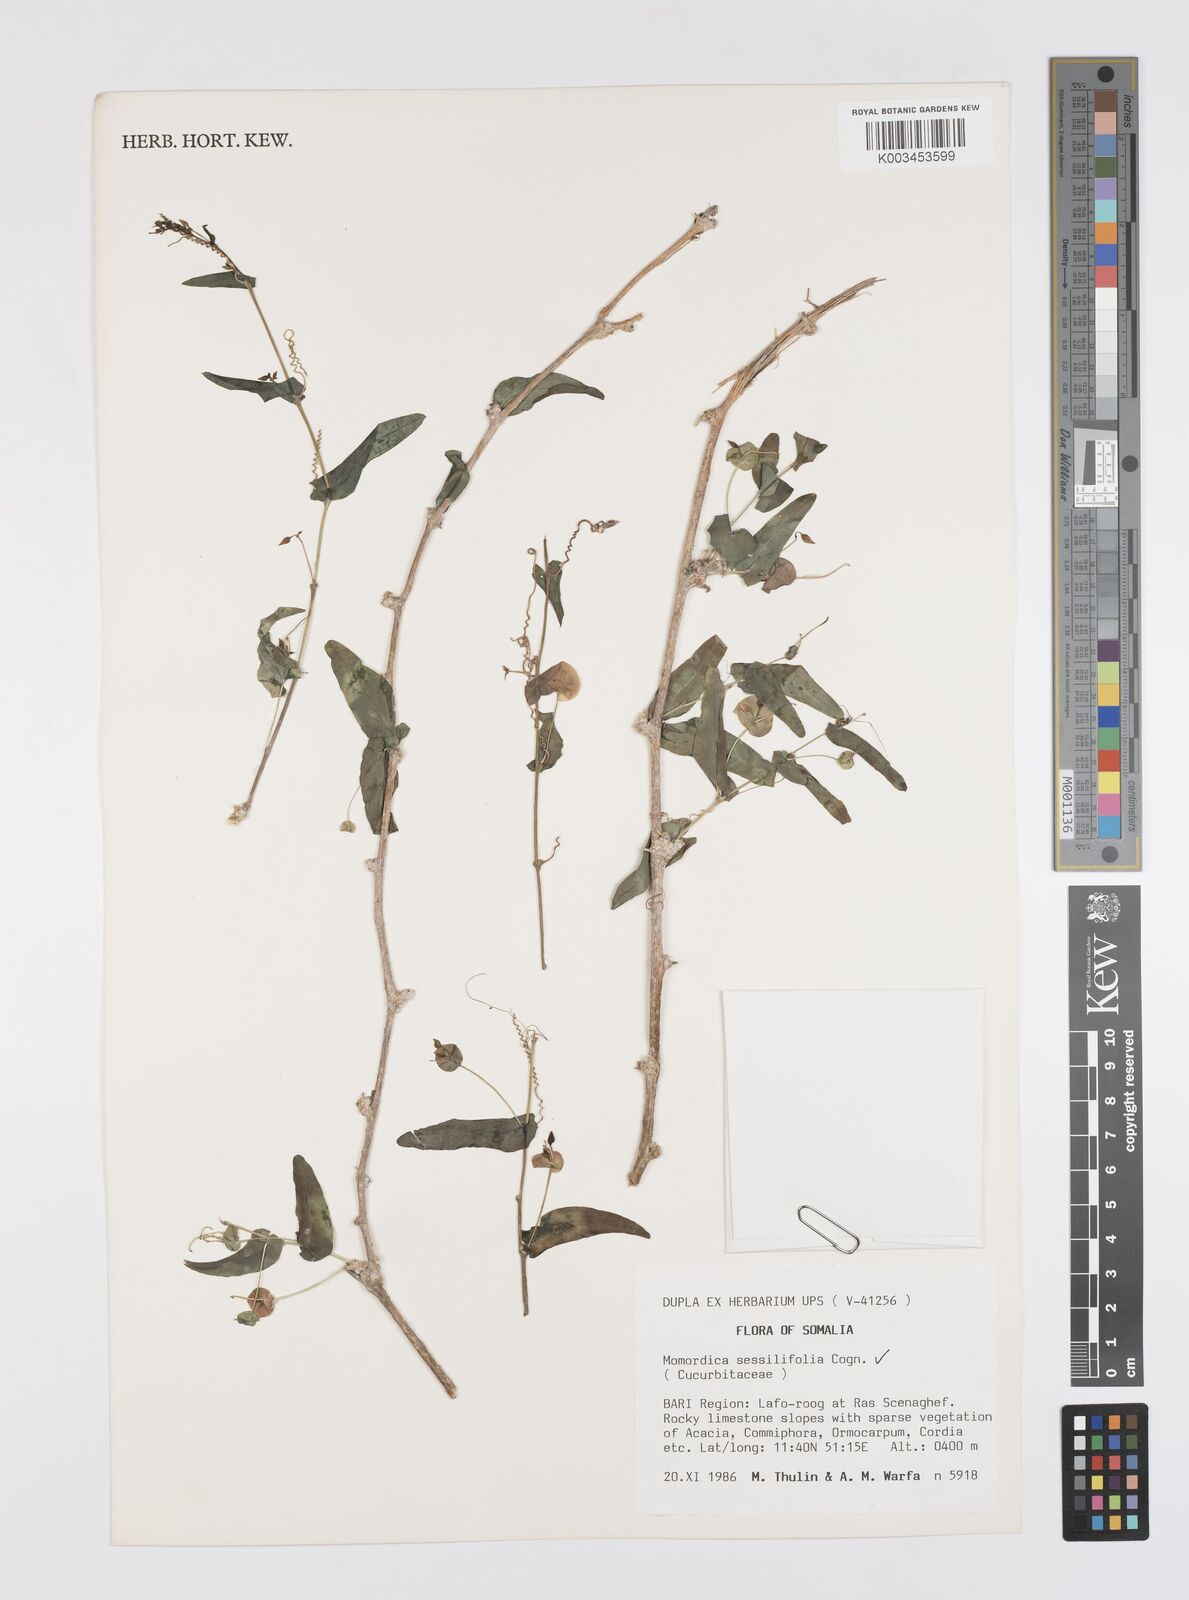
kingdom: Plantae
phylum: Tracheophyta
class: Magnoliopsida
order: Cucurbitales
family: Cucurbitaceae
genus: Momordica
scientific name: Momordica sessilifolia
